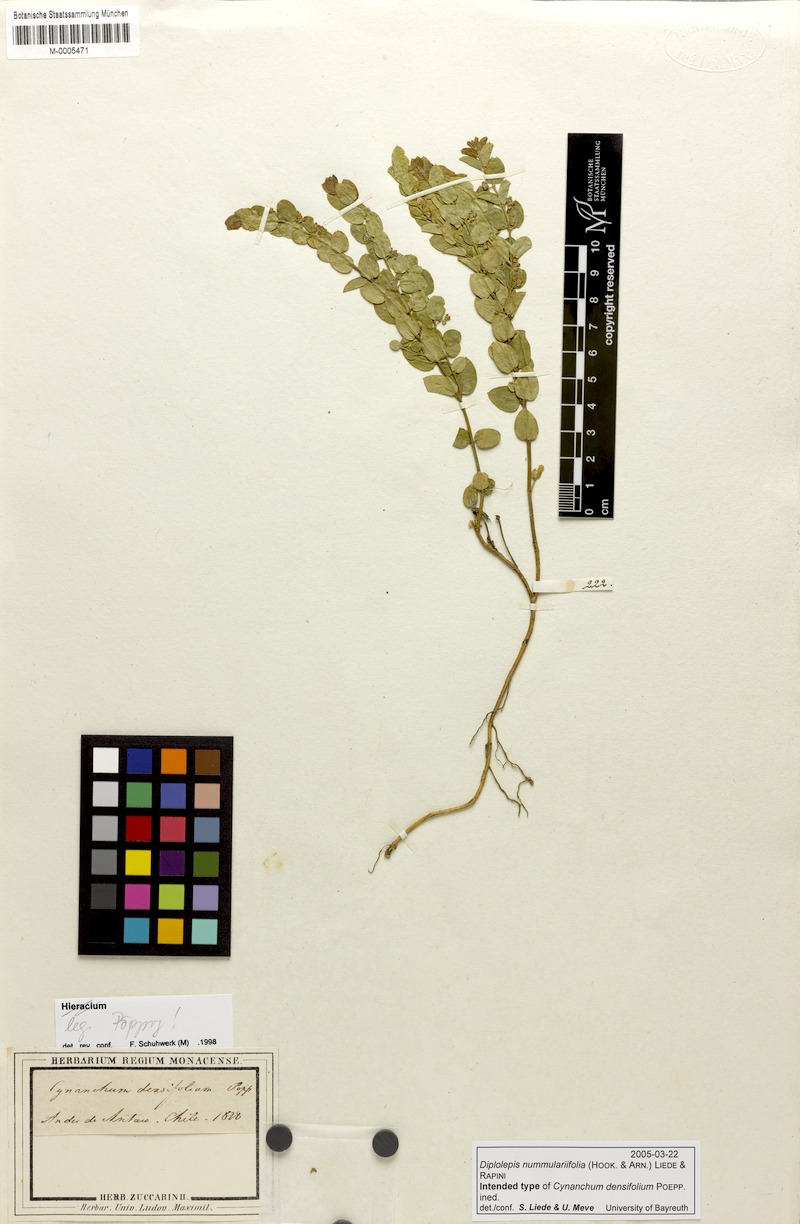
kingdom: Plantae
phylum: Tracheophyta
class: Magnoliopsida
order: Gentianales
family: Apocynaceae
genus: Diplolepis
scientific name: Diplolepis nummulariifolia
